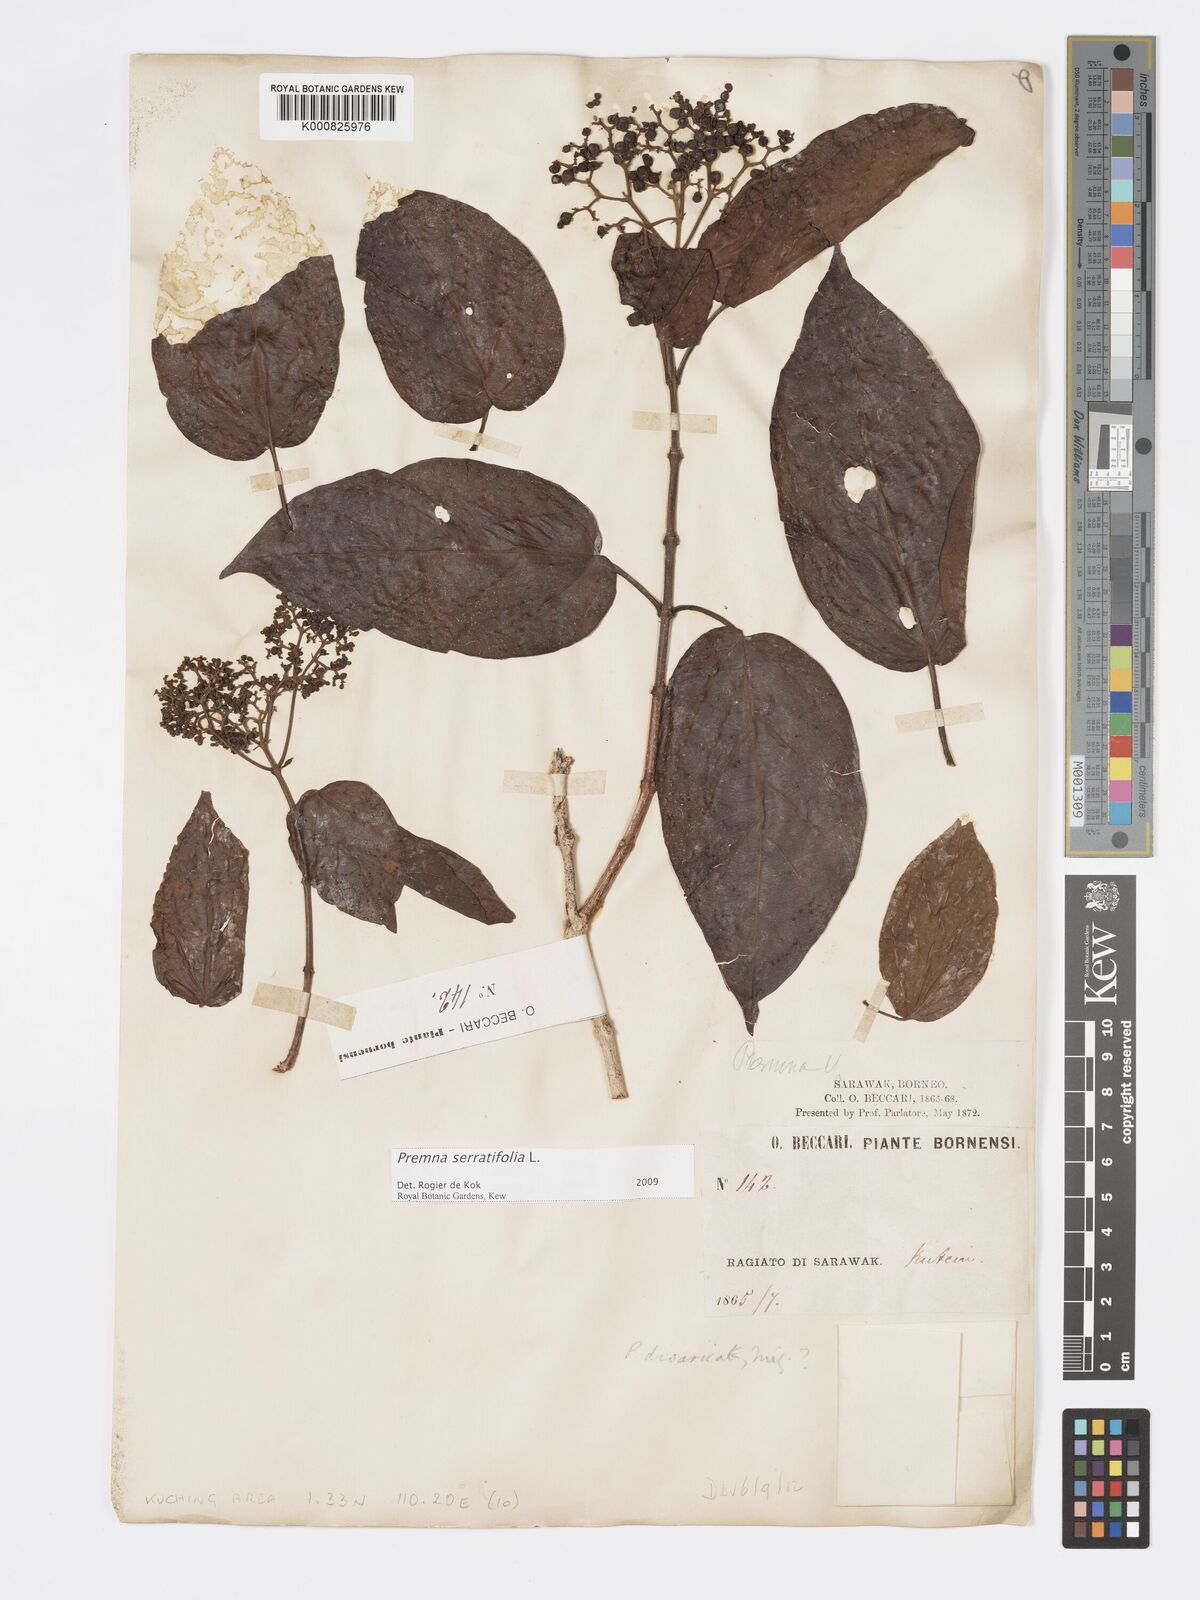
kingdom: Plantae
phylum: Tracheophyta
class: Magnoliopsida
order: Lamiales
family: Lamiaceae
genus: Premna
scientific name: Premna serratifolia
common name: Bastard guelder
